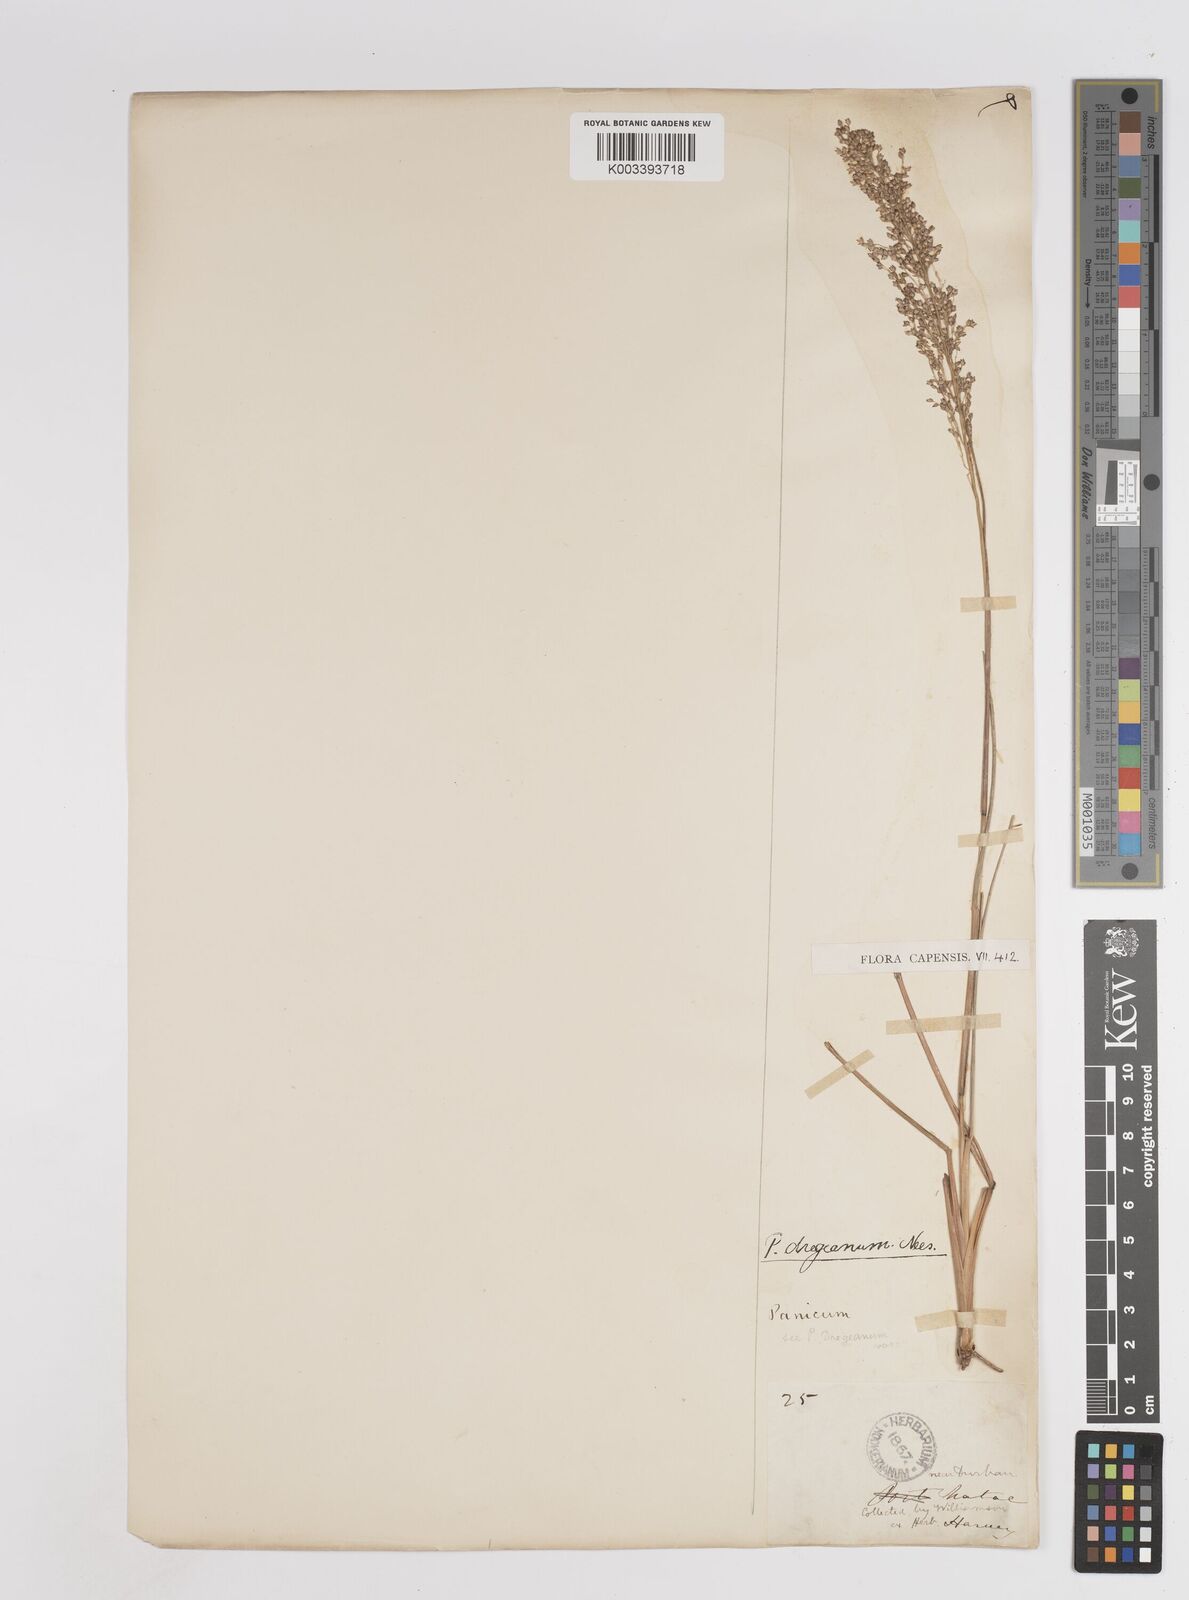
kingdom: Plantae
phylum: Tracheophyta
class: Liliopsida
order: Poales
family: Poaceae
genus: Panicum
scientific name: Panicum dregeanum
